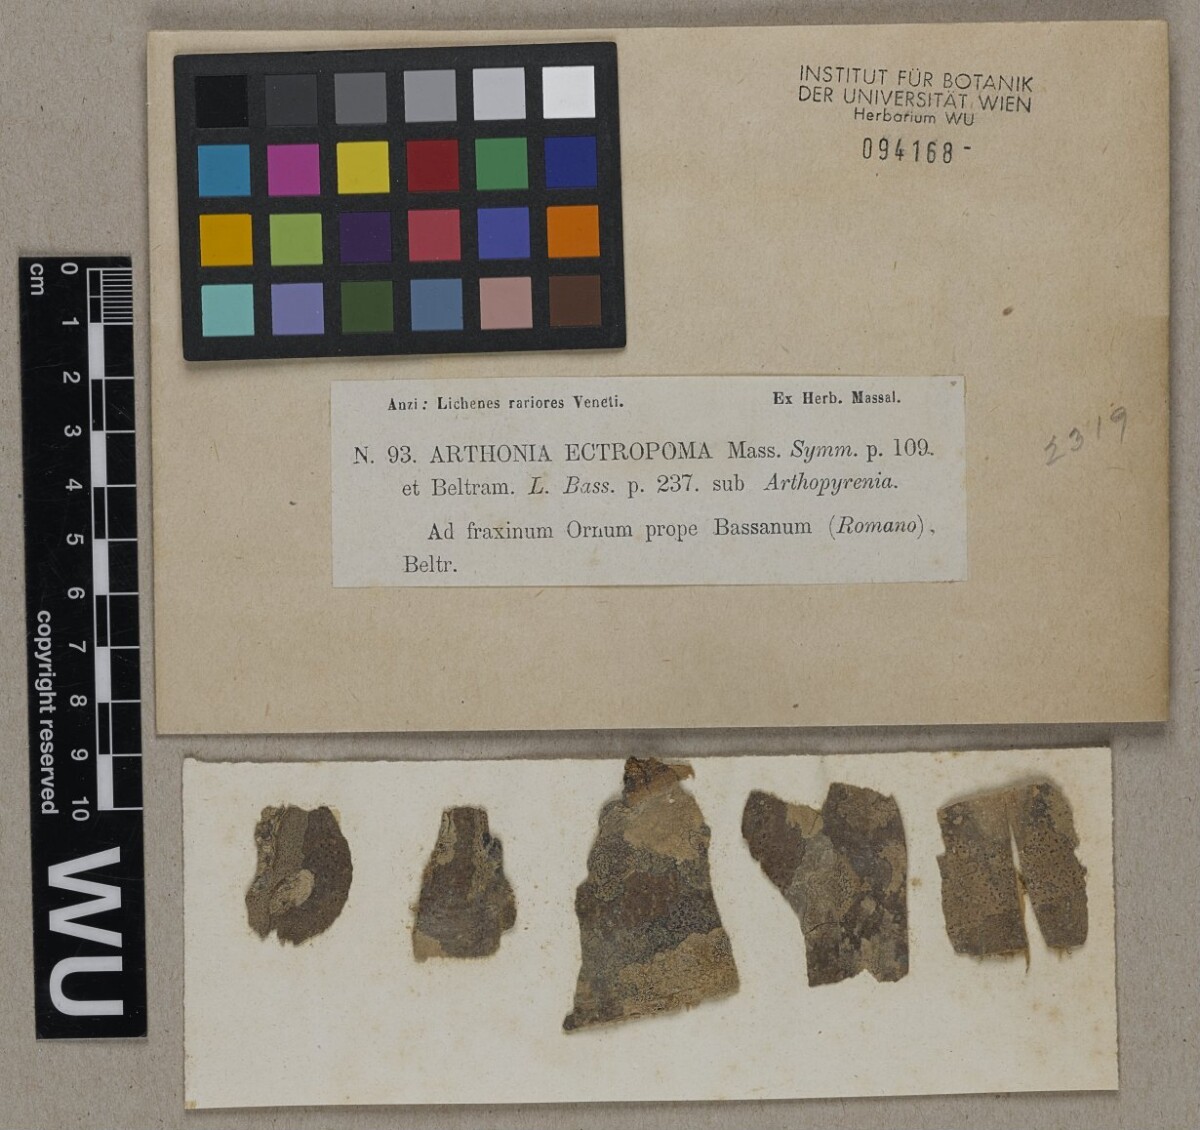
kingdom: Fungi
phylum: Ascomycota
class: Arthoniomycetes
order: Arthoniales
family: Arthoniaceae
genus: Naevia
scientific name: Naevia dispersa
